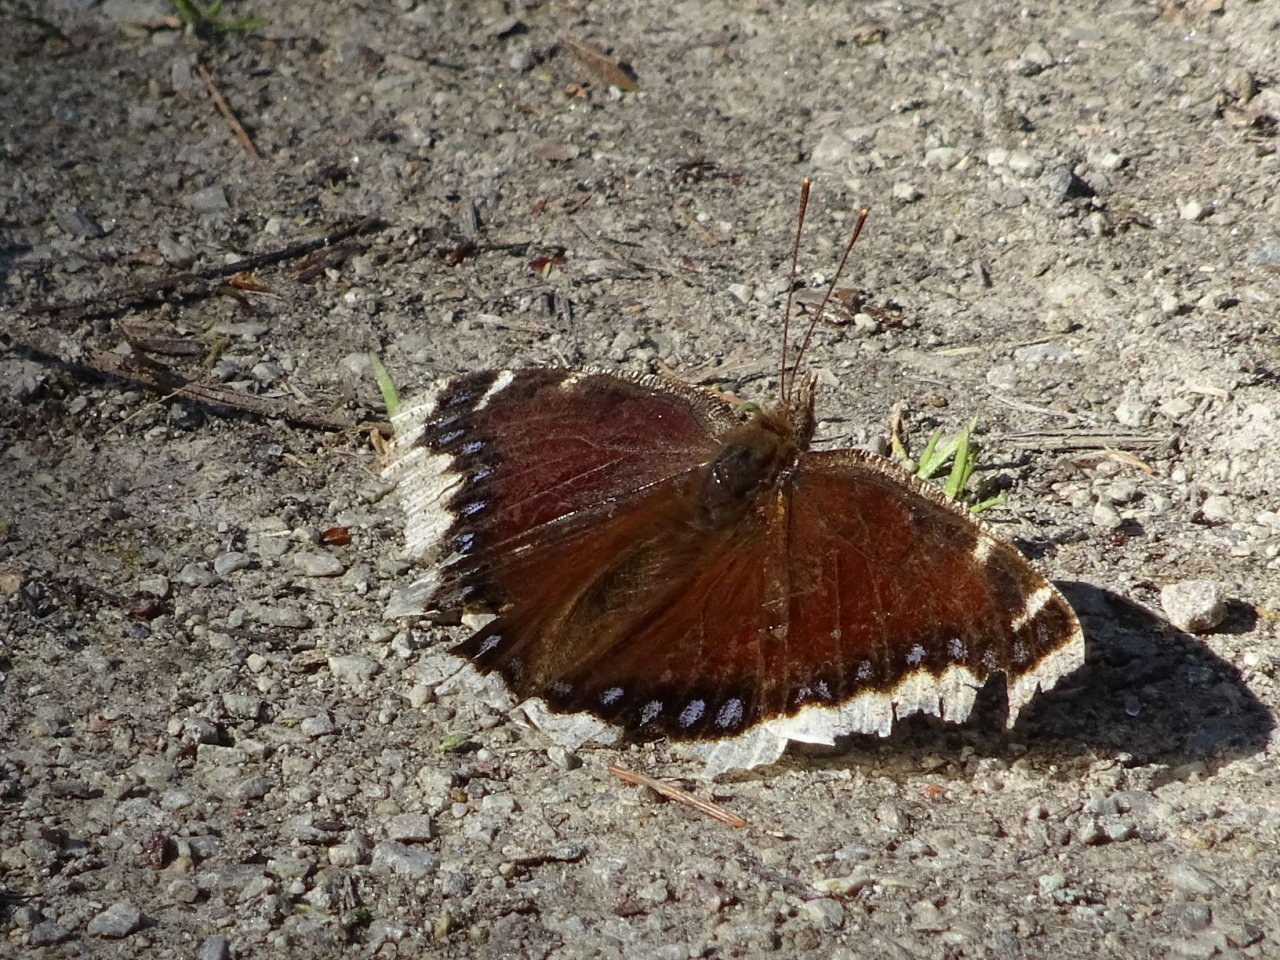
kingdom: Animalia
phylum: Arthropoda
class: Insecta
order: Lepidoptera
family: Nymphalidae
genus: Nymphalis
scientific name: Nymphalis antiopa
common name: Mourning Cloak
